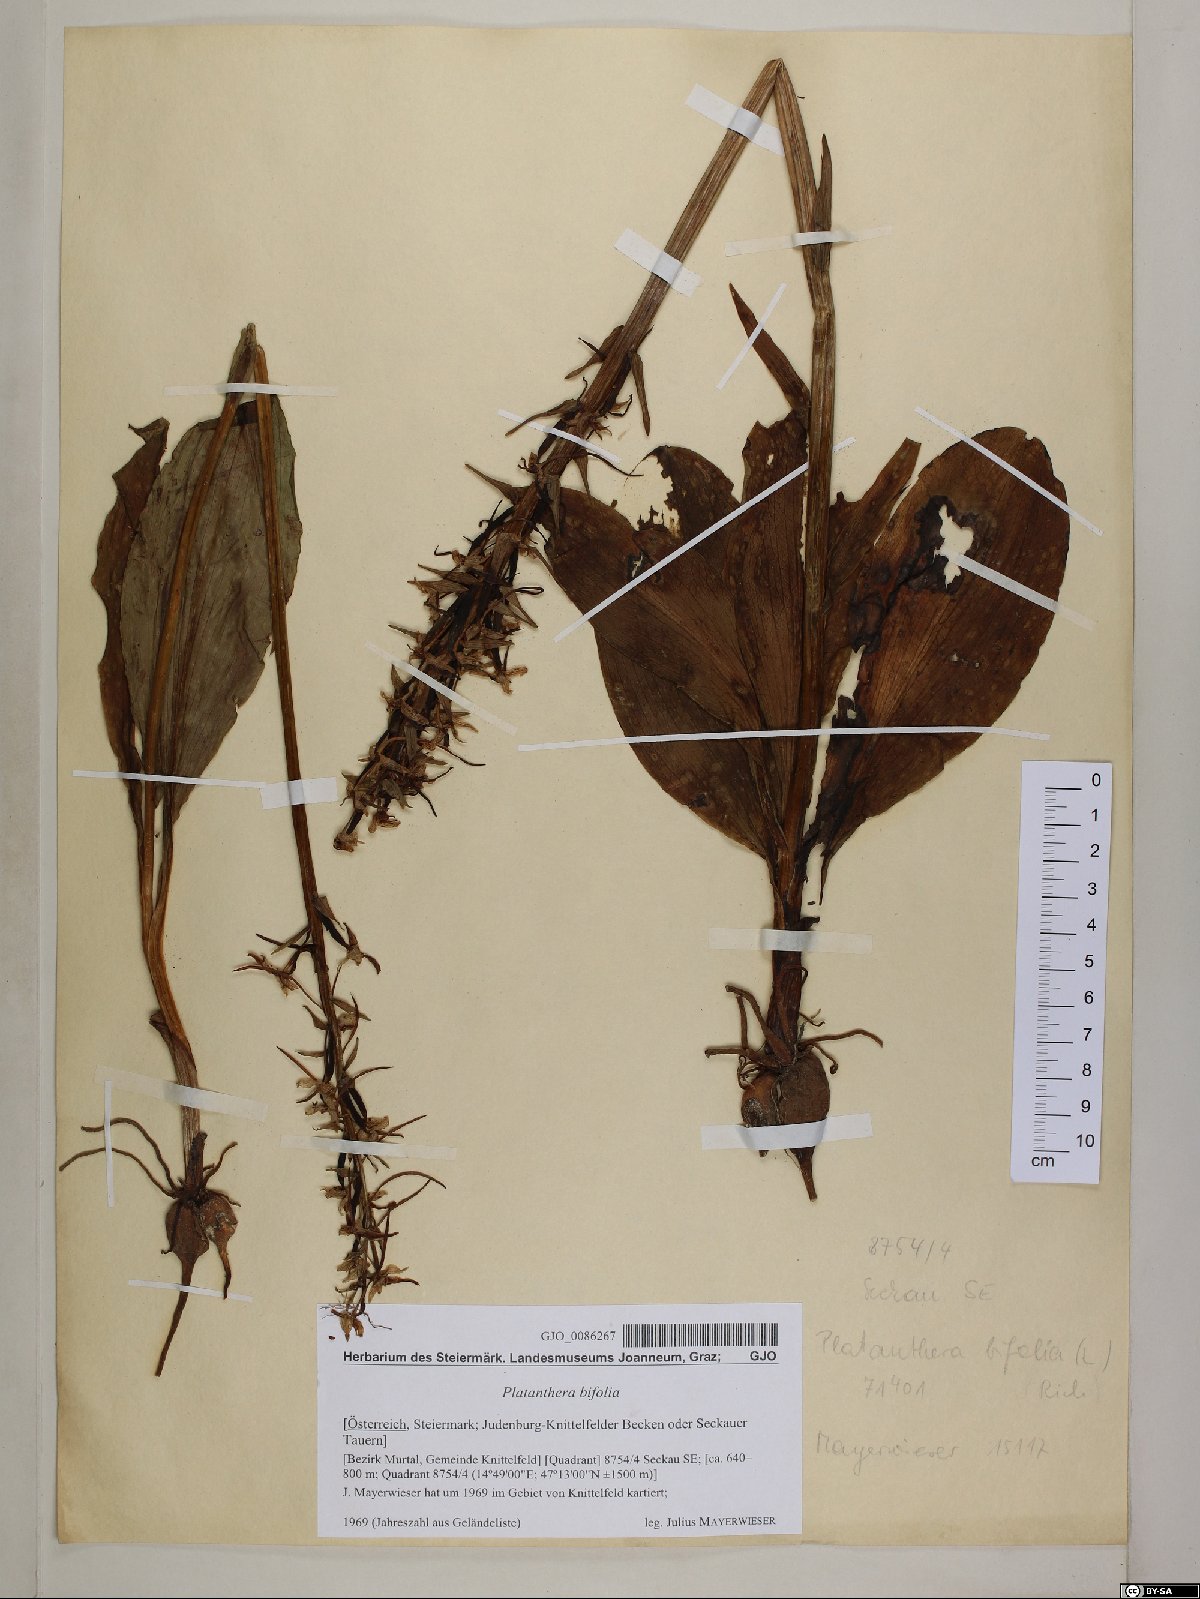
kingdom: Plantae
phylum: Tracheophyta
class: Liliopsida
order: Asparagales
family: Orchidaceae
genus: Platanthera
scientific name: Platanthera bifolia
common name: Lesser butterfly-orchid
